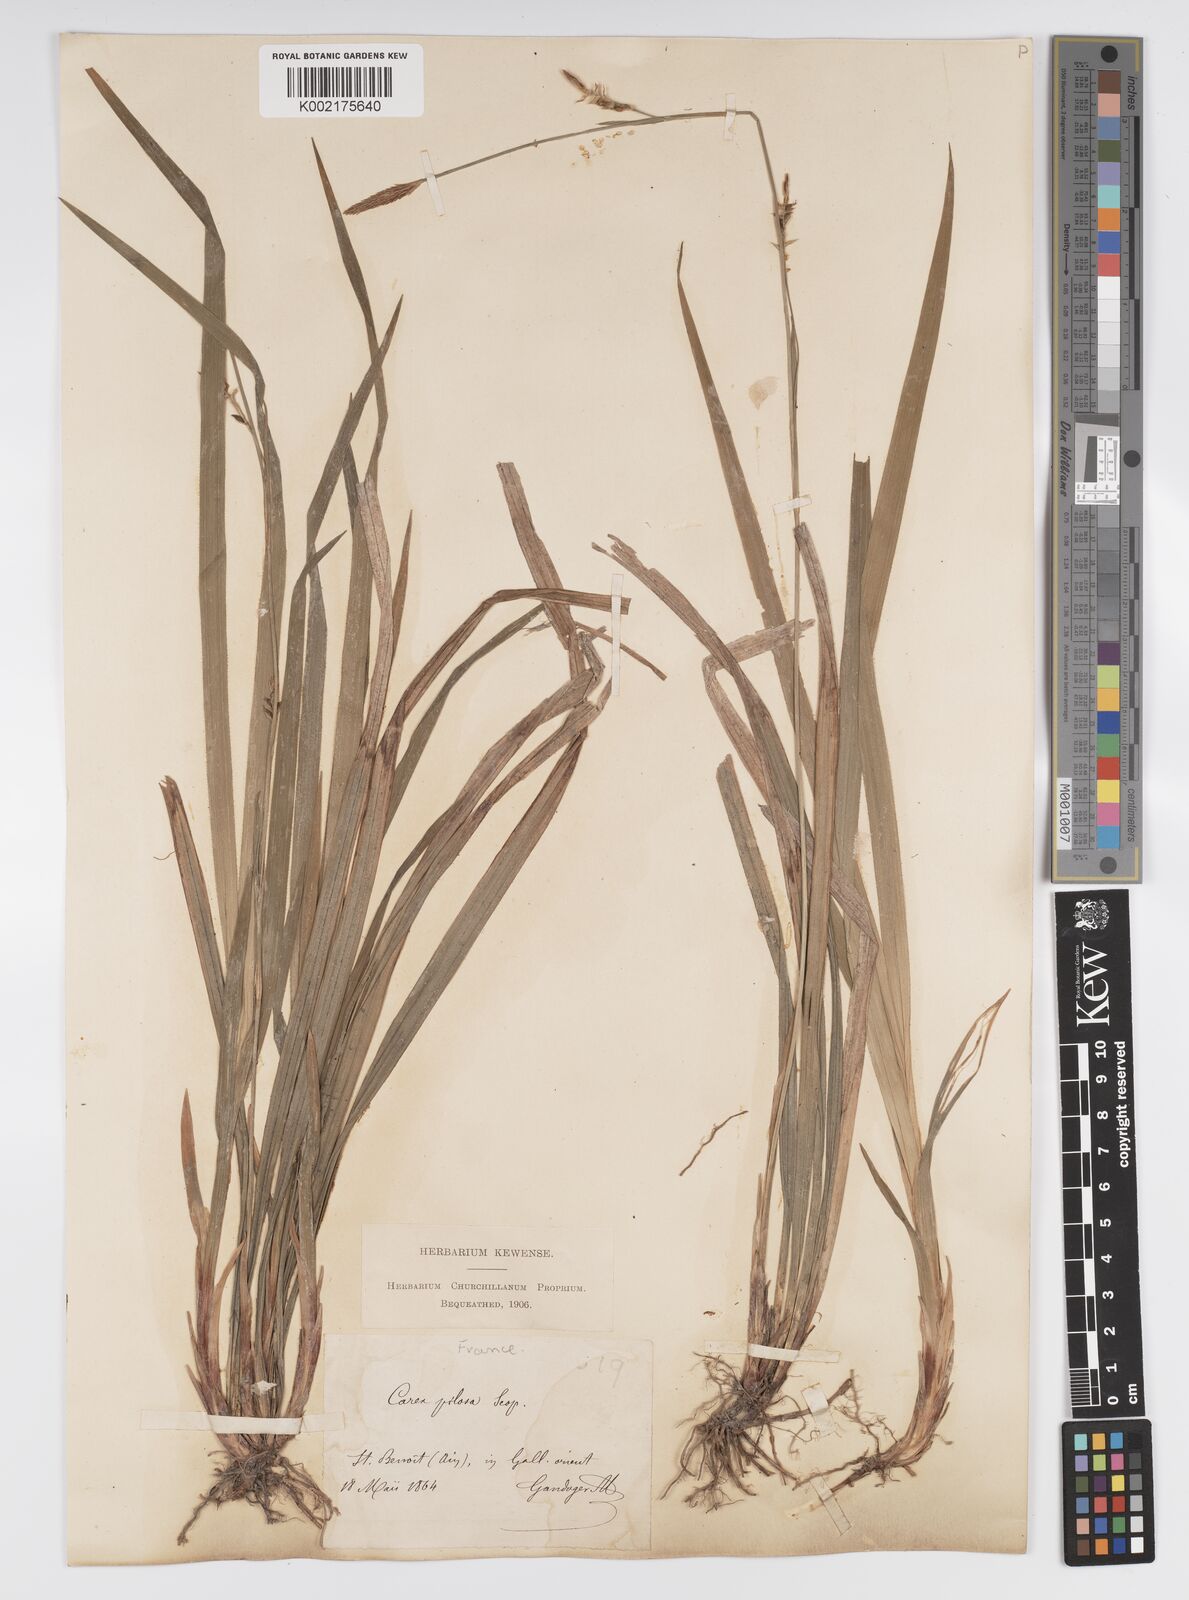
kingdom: Plantae
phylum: Tracheophyta
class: Liliopsida
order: Poales
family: Cyperaceae
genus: Carex
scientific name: Carex pilosa
